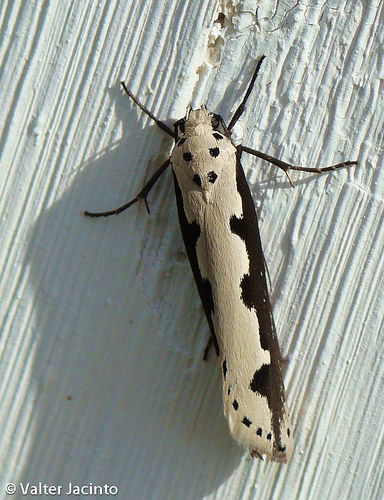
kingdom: Animalia
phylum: Arthropoda
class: Insecta
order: Lepidoptera
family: Ethmiidae
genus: Ethmia
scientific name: Ethmia bipunctella
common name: Bordered ermel
